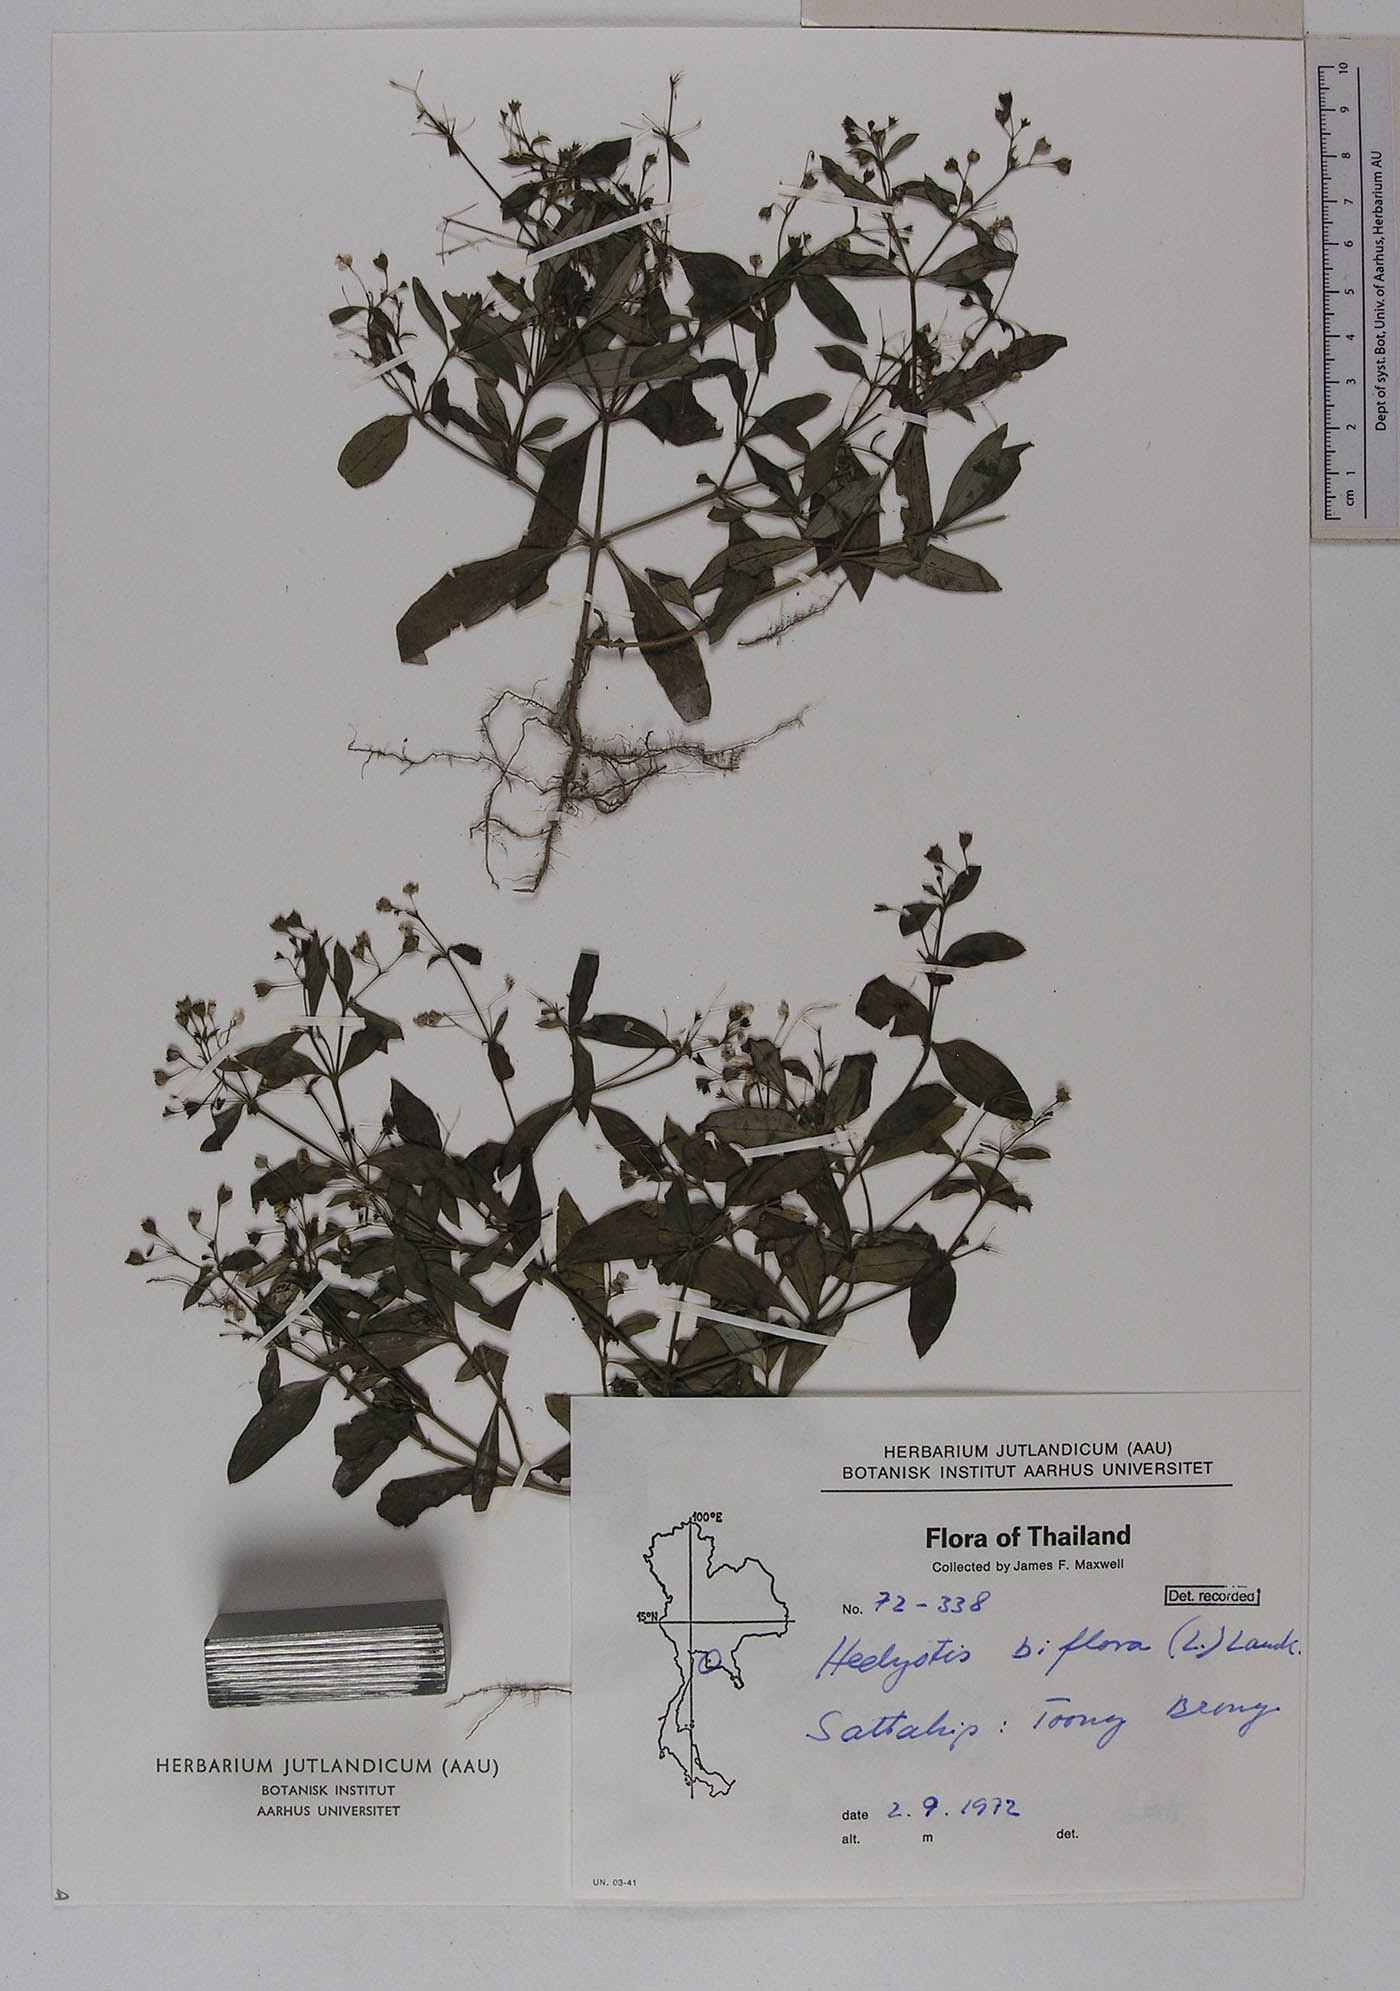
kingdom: Plantae
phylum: Tracheophyta
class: Magnoliopsida
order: Gentianales
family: Rubiaceae
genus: Leptopetalum
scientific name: Leptopetalum biflorum
